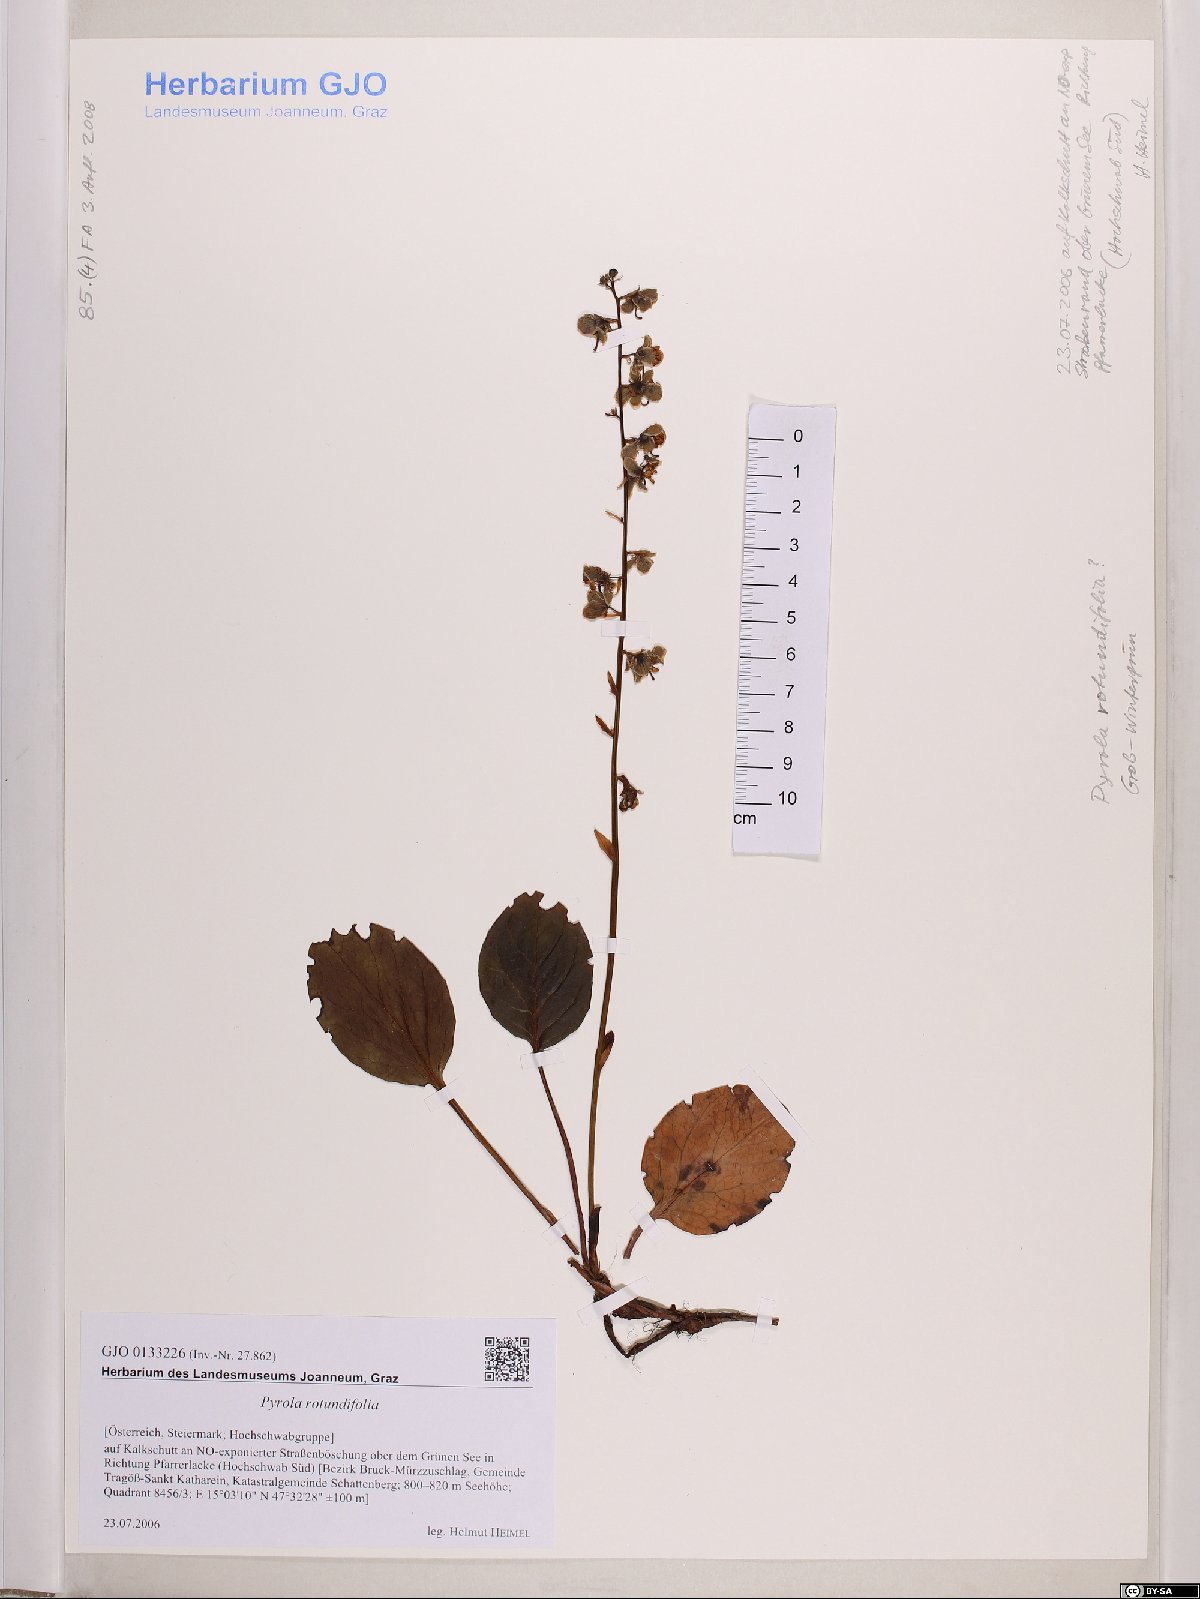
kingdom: Plantae
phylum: Tracheophyta
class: Magnoliopsida
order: Ericales
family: Ericaceae
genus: Pyrola
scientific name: Pyrola rotundifolia
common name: Round-leaved wintergreen
